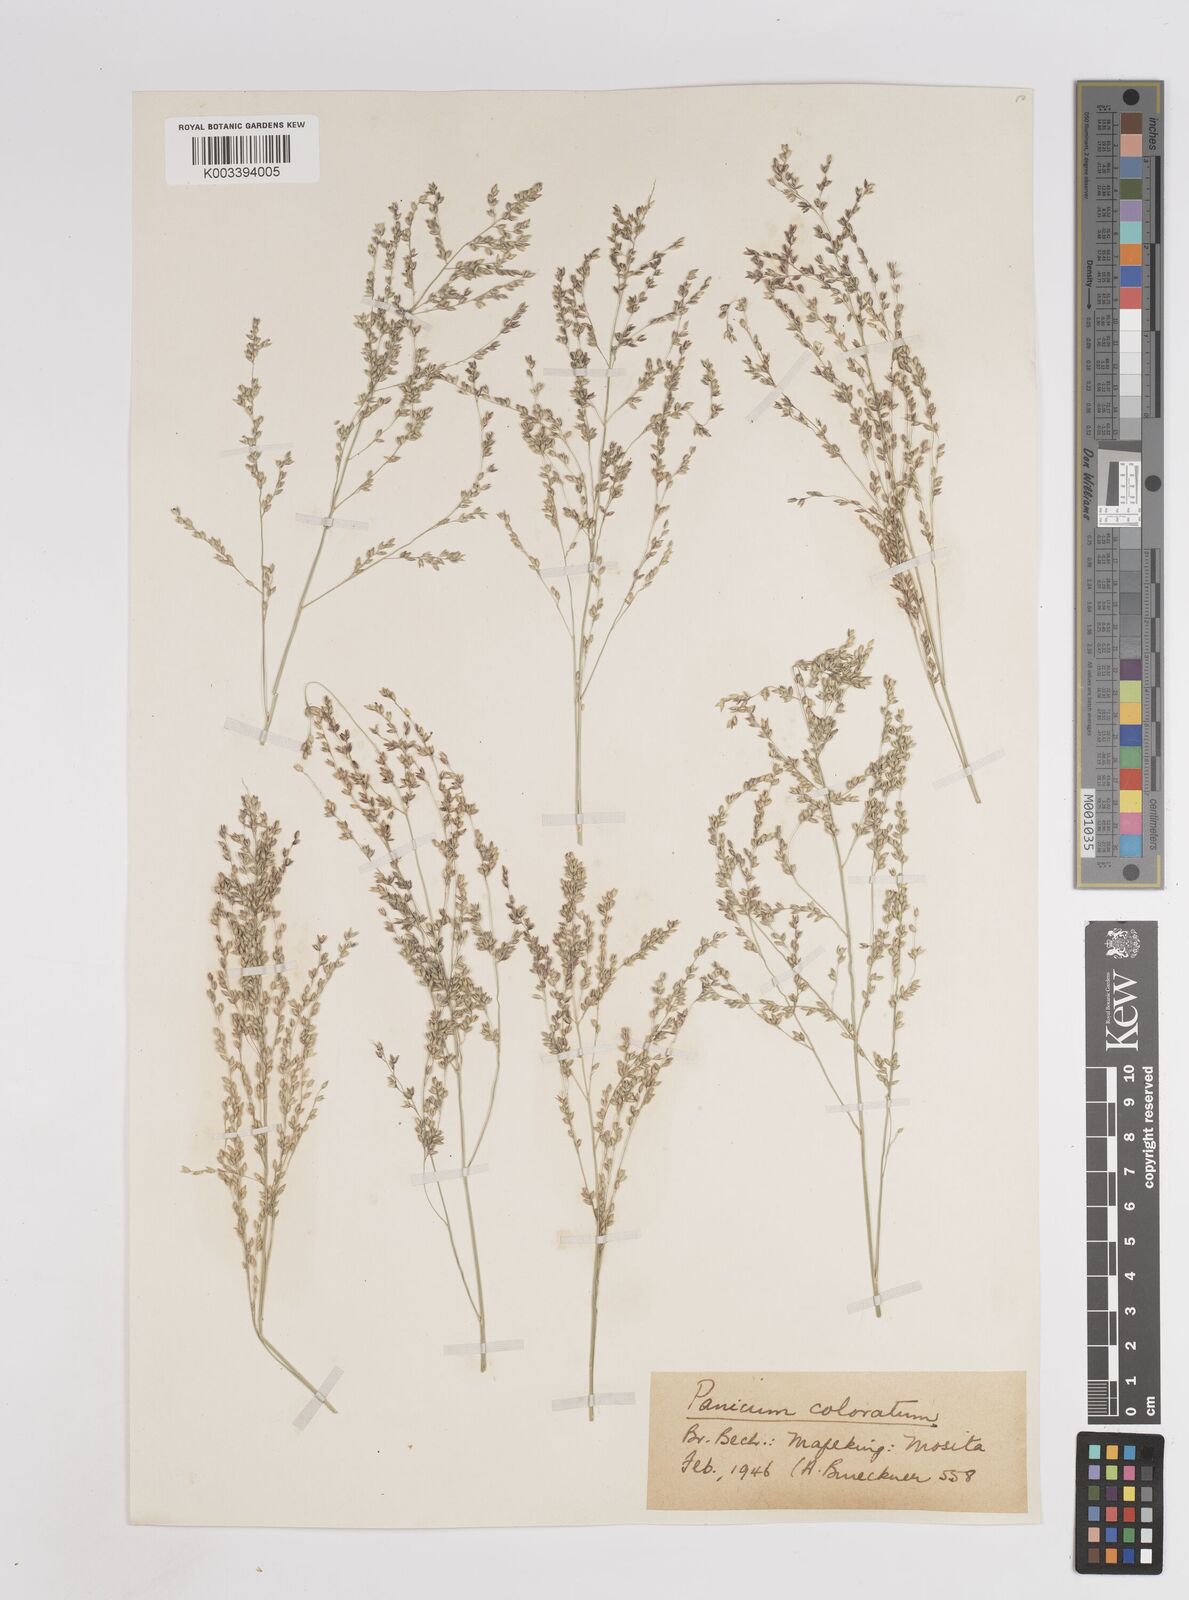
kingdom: Plantae
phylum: Tracheophyta
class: Liliopsida
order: Poales
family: Poaceae
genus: Panicum
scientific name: Panicum coloratum
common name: Kleingrass
